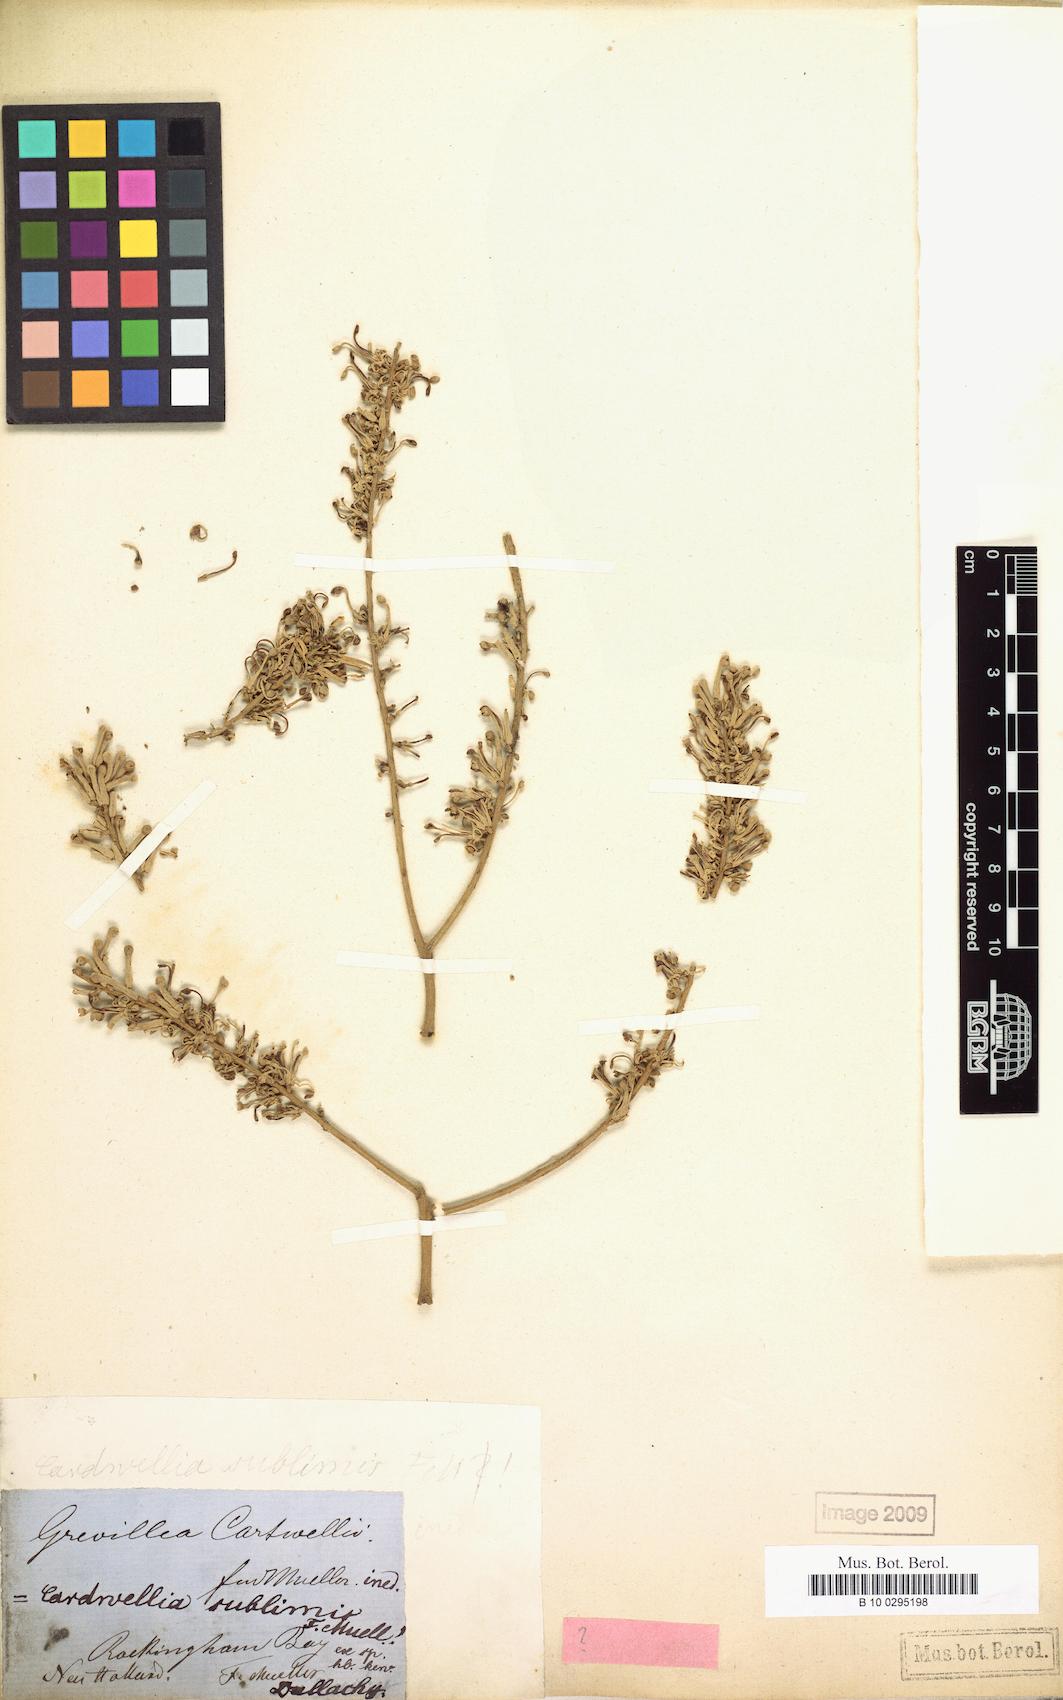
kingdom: Plantae
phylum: Tracheophyta
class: Magnoliopsida
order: Proteales
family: Proteaceae
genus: Cardwellia
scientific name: Cardwellia sublimis
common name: Bull oak
